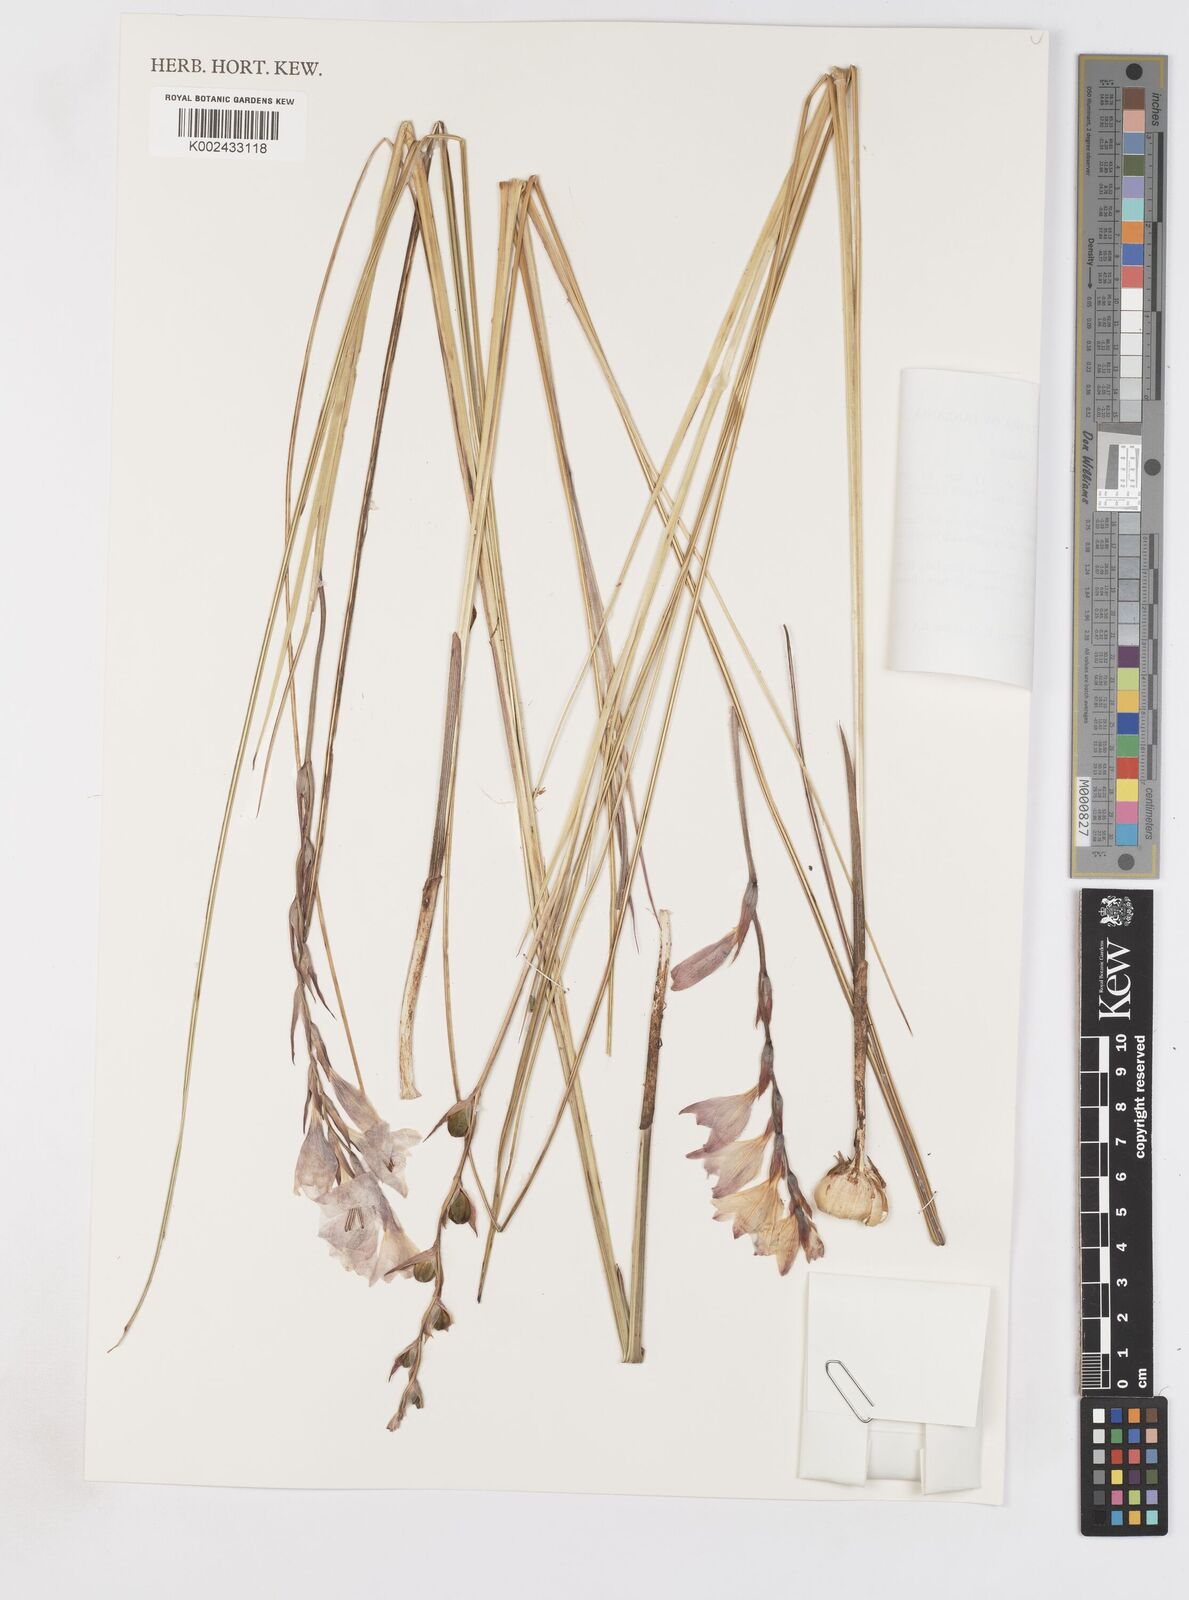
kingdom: Plantae
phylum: Tracheophyta
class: Liliopsida
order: Asparagales
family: Iridaceae
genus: Gladiolus
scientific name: Gladiolus sulculatus
